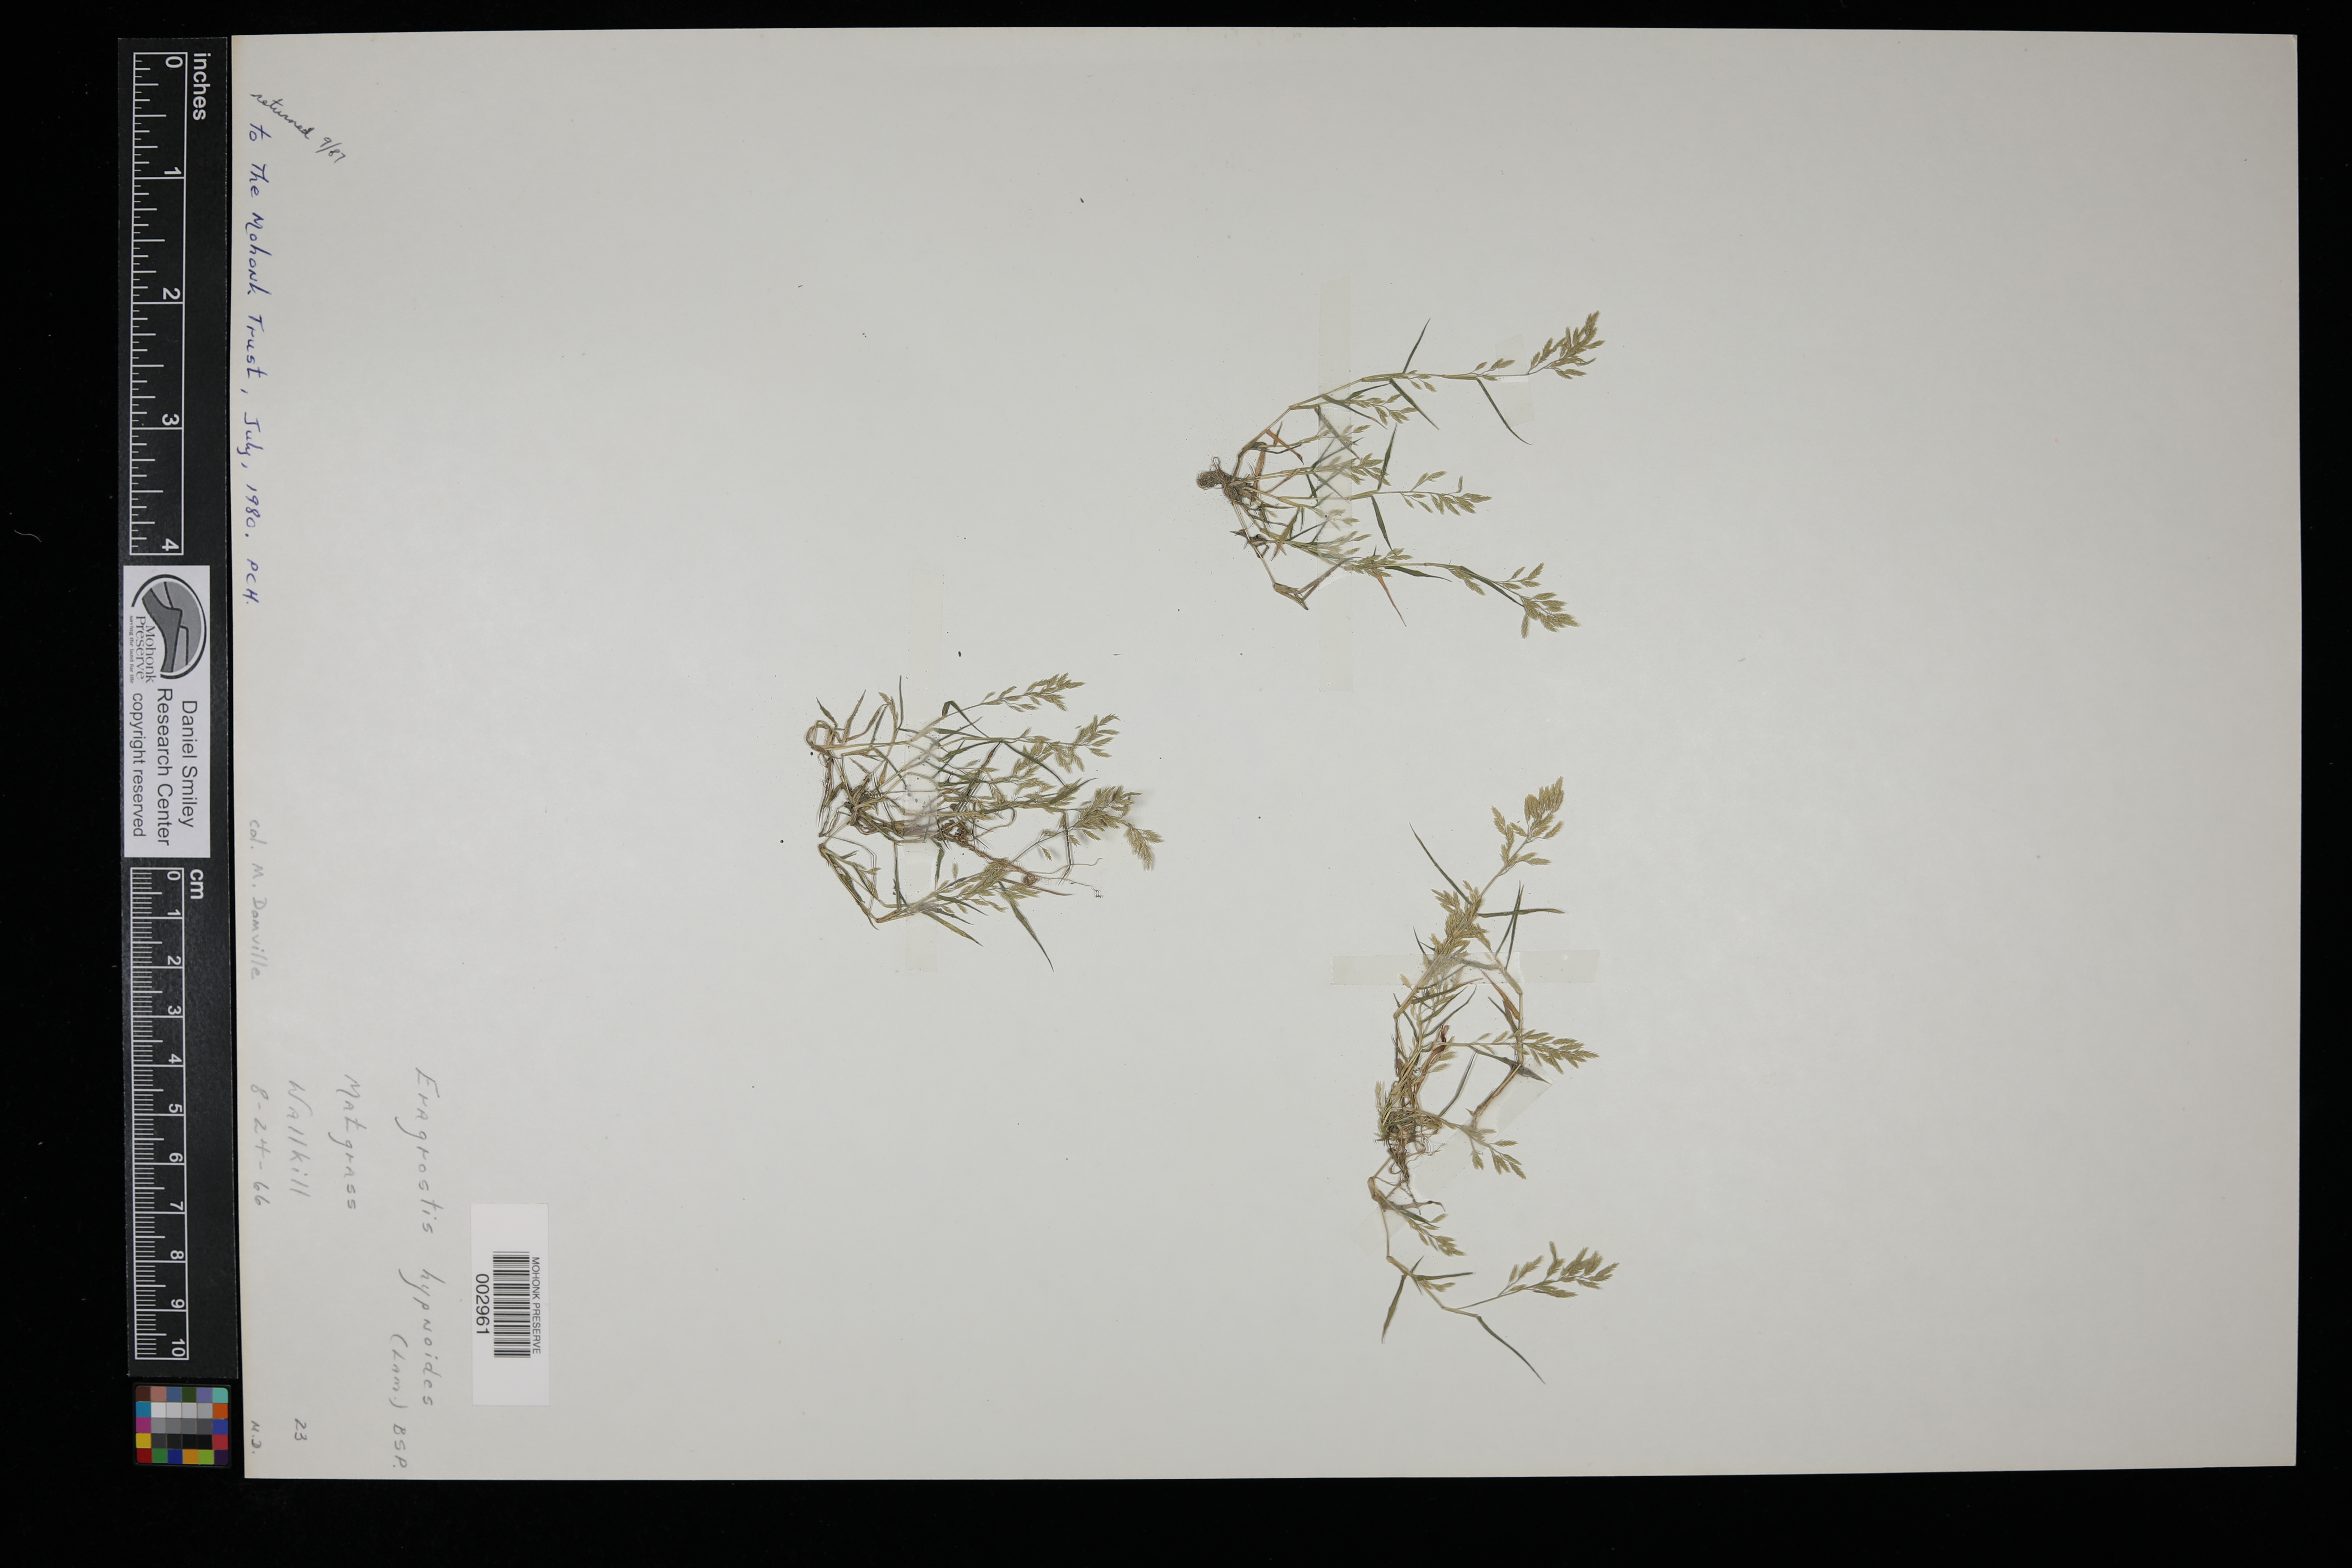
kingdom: Plantae
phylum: Tracheophyta
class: Liliopsida
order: Poales
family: Poaceae
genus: Eragrostis
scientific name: Eragrostis hypnoides
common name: Creeping love grass
